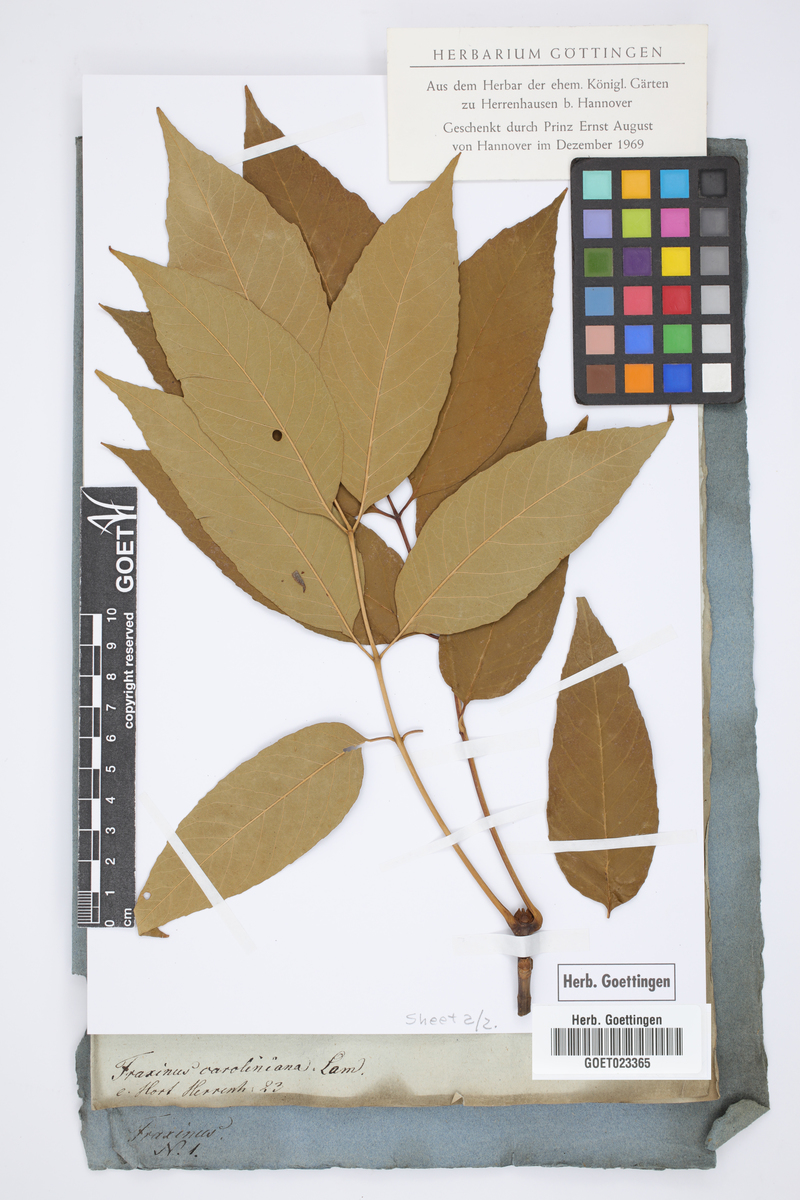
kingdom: Plantae
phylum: Tracheophyta
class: Magnoliopsida
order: Lamiales
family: Oleaceae
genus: Fraxinus
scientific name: Fraxinus caroliniana
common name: Carolina ash
